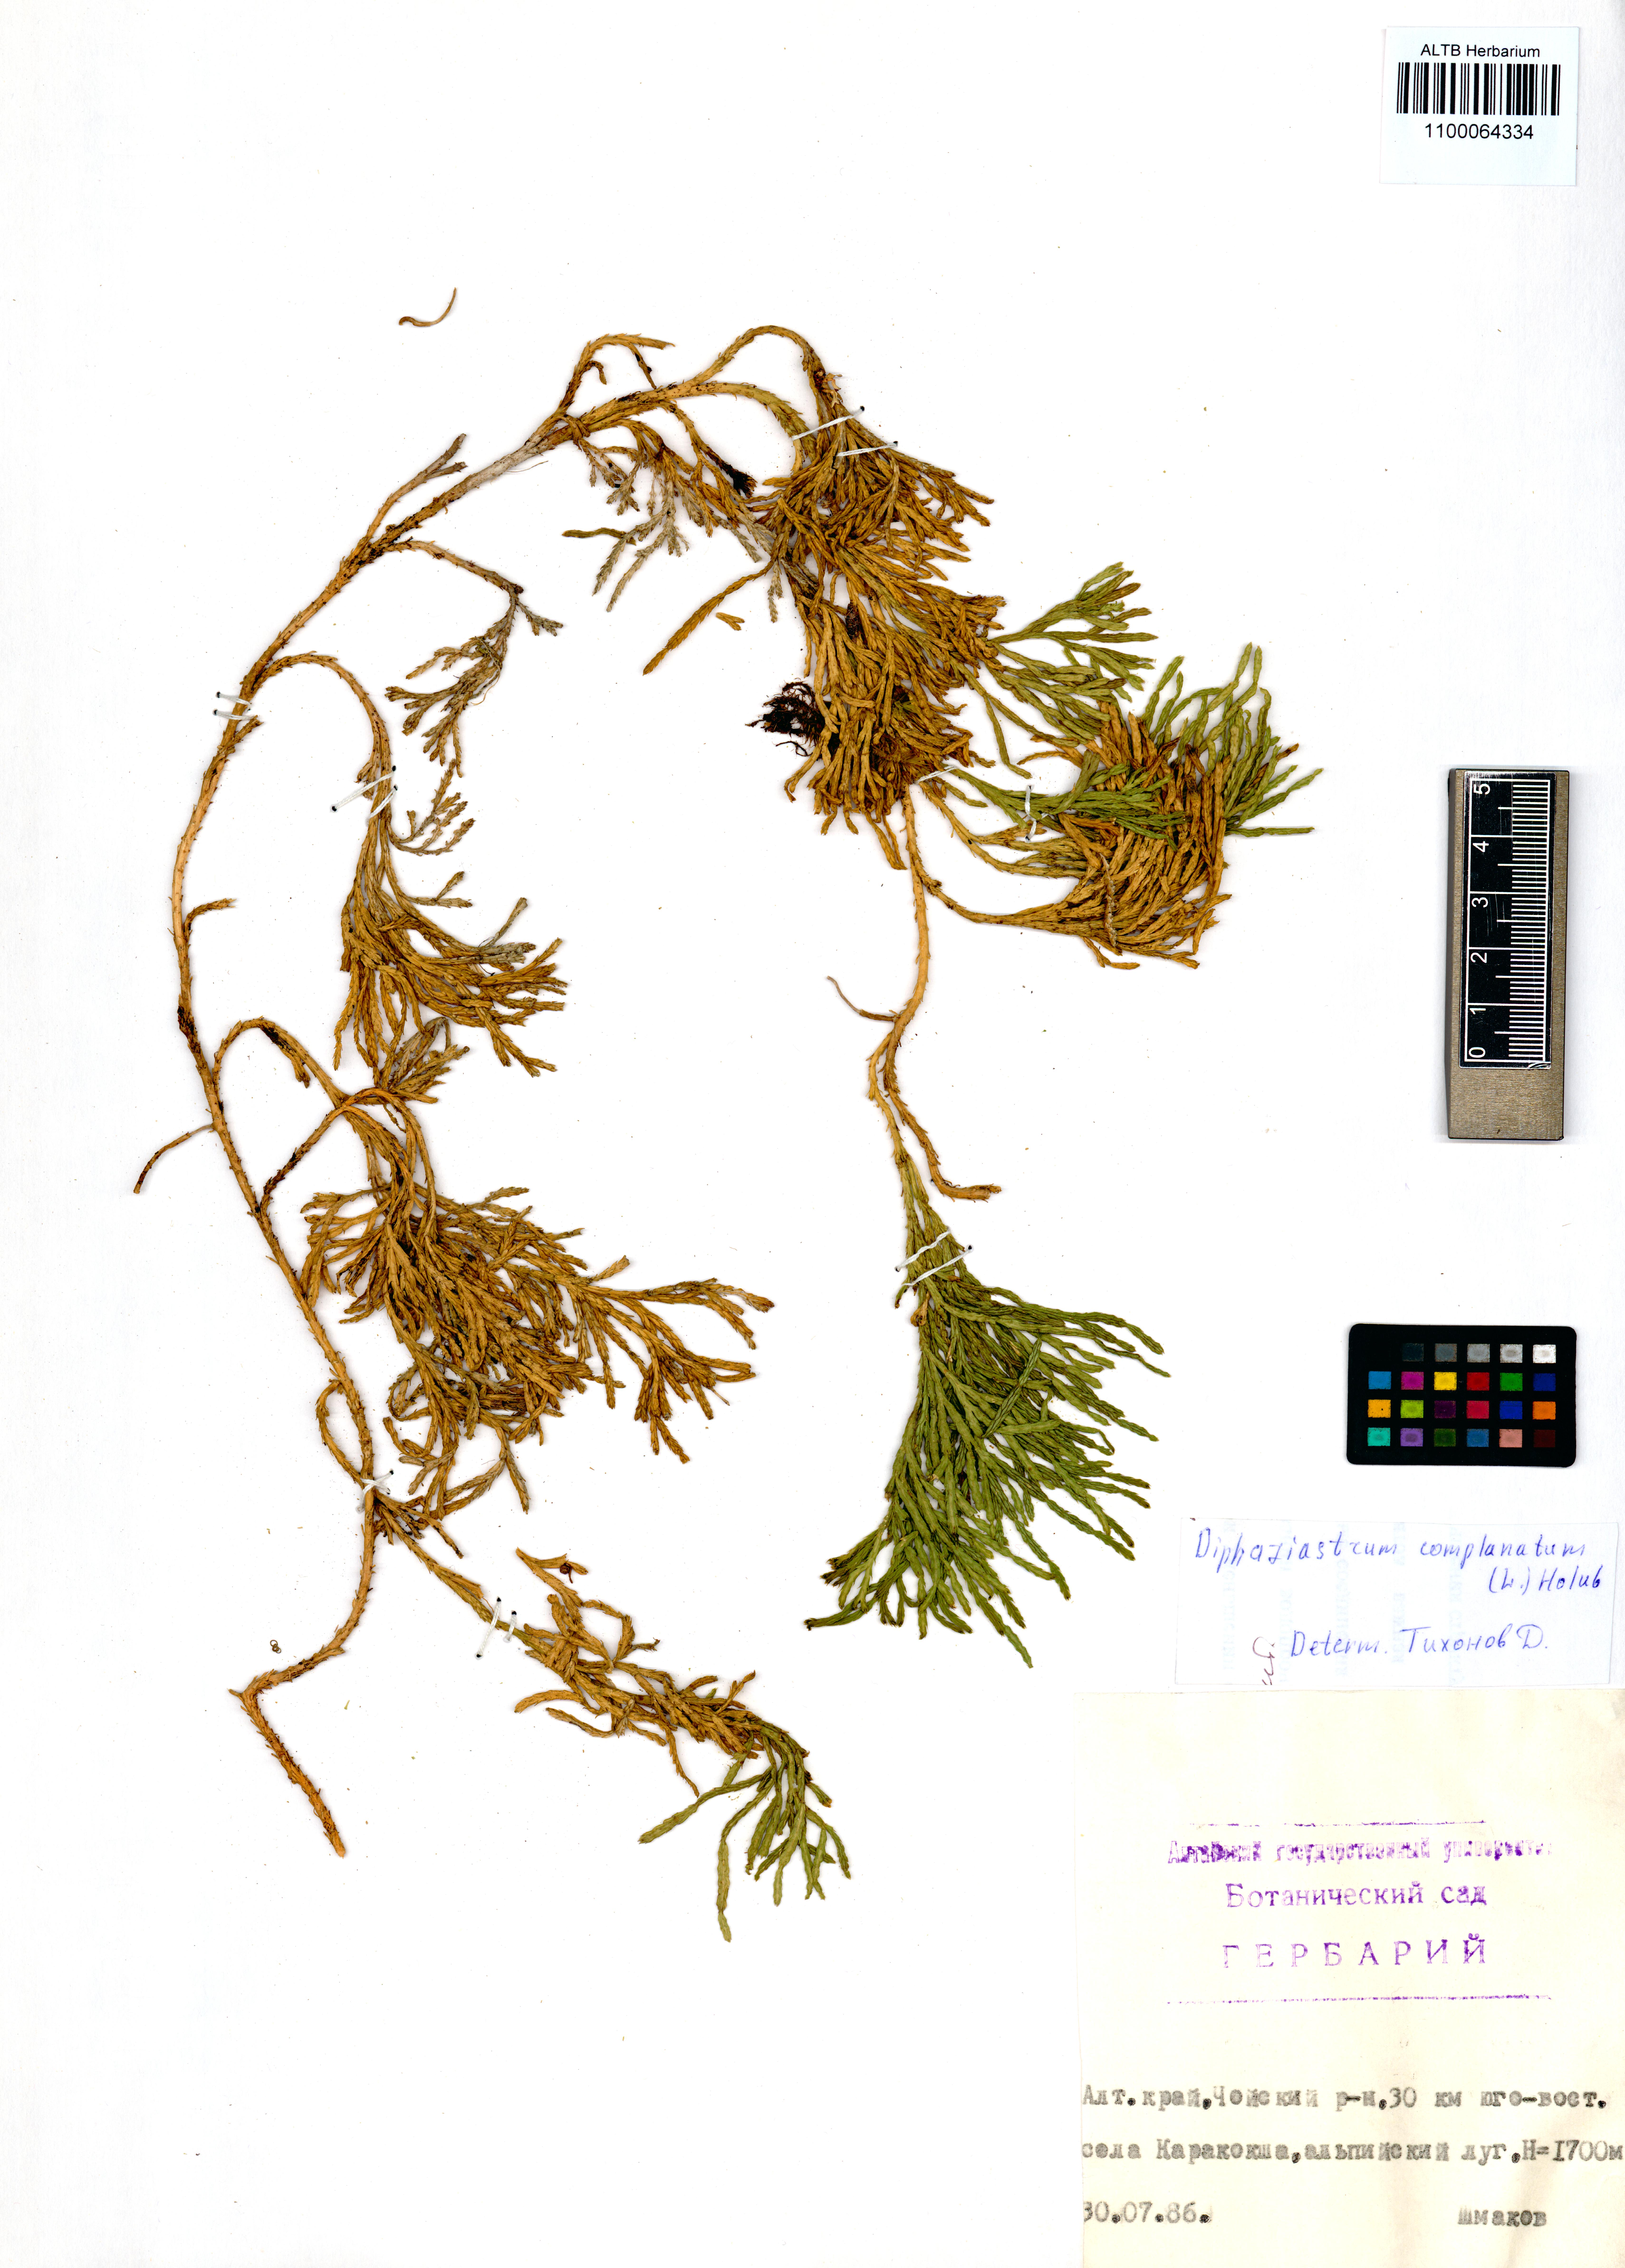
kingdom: Plantae
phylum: Tracheophyta
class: Lycopodiopsida
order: Lycopodiales
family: Lycopodiaceae
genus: Diphasiastrum
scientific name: Diphasiastrum complanatum
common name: Northern running-pine
